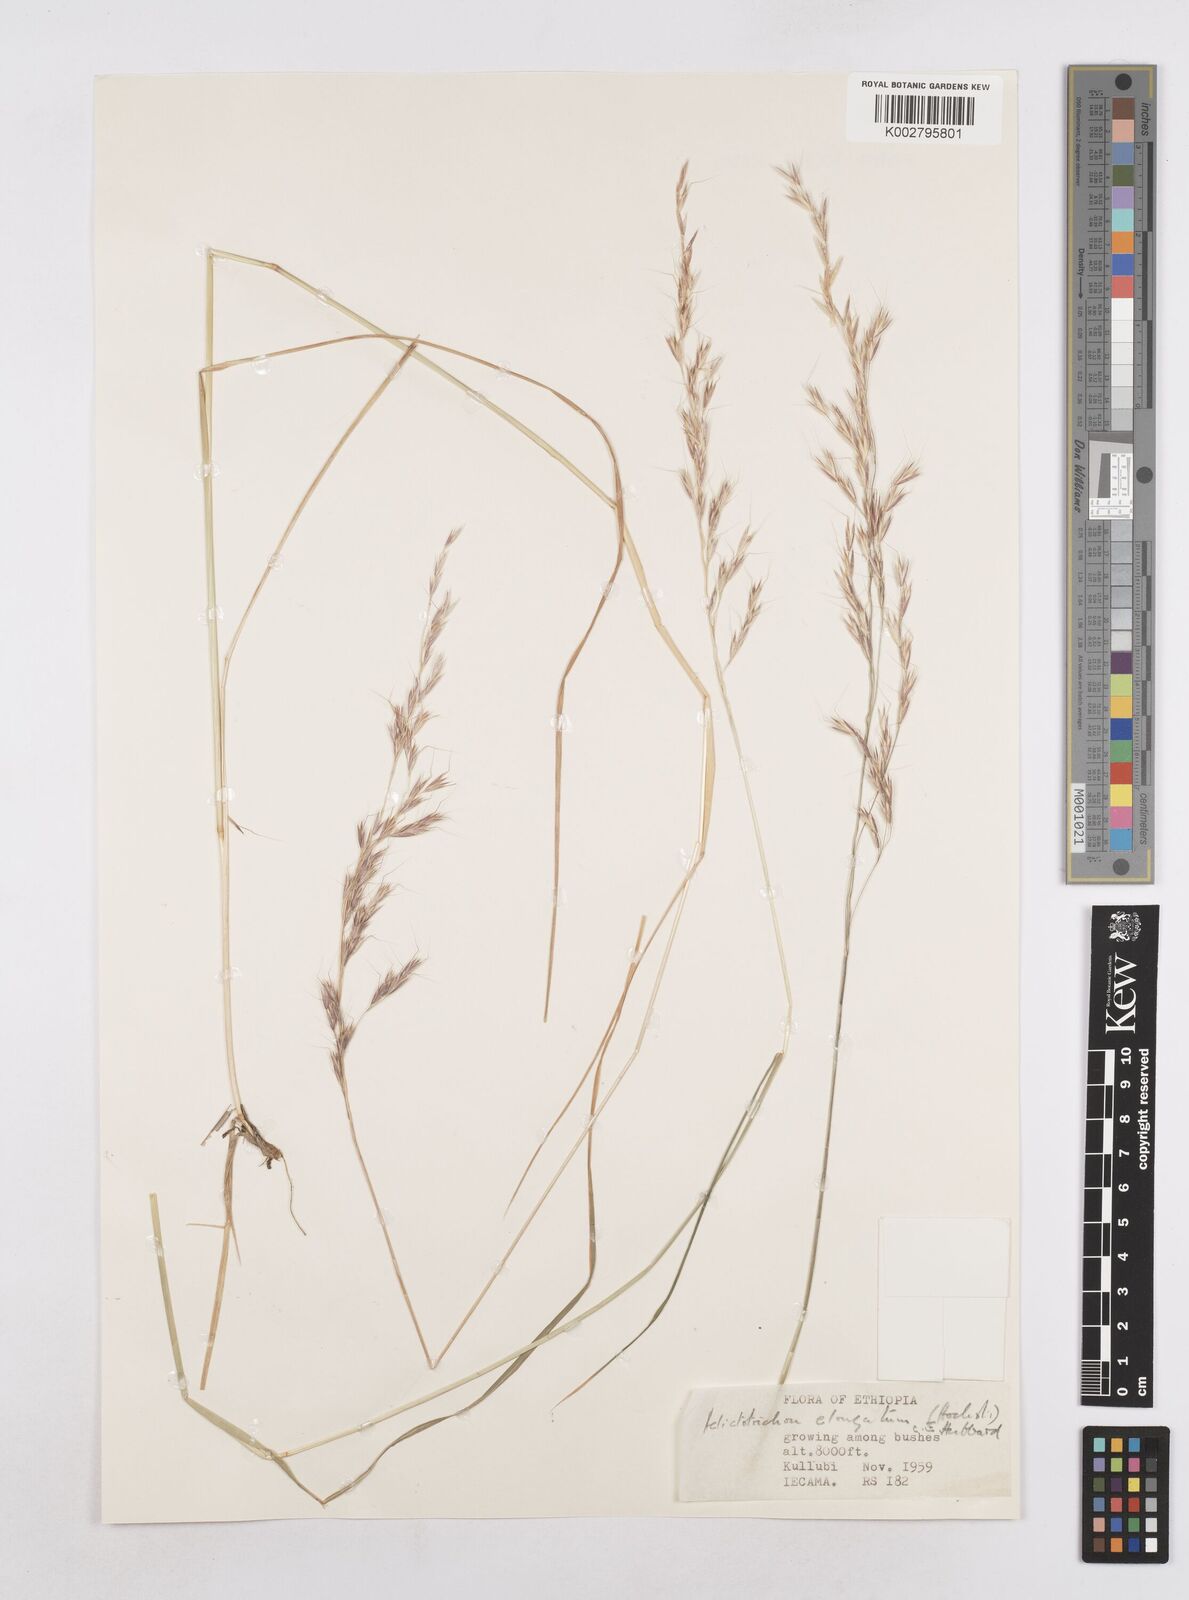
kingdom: Plantae
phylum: Tracheophyta
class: Liliopsida
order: Poales
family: Poaceae
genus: Trisetopsis
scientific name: Trisetopsis elongata
